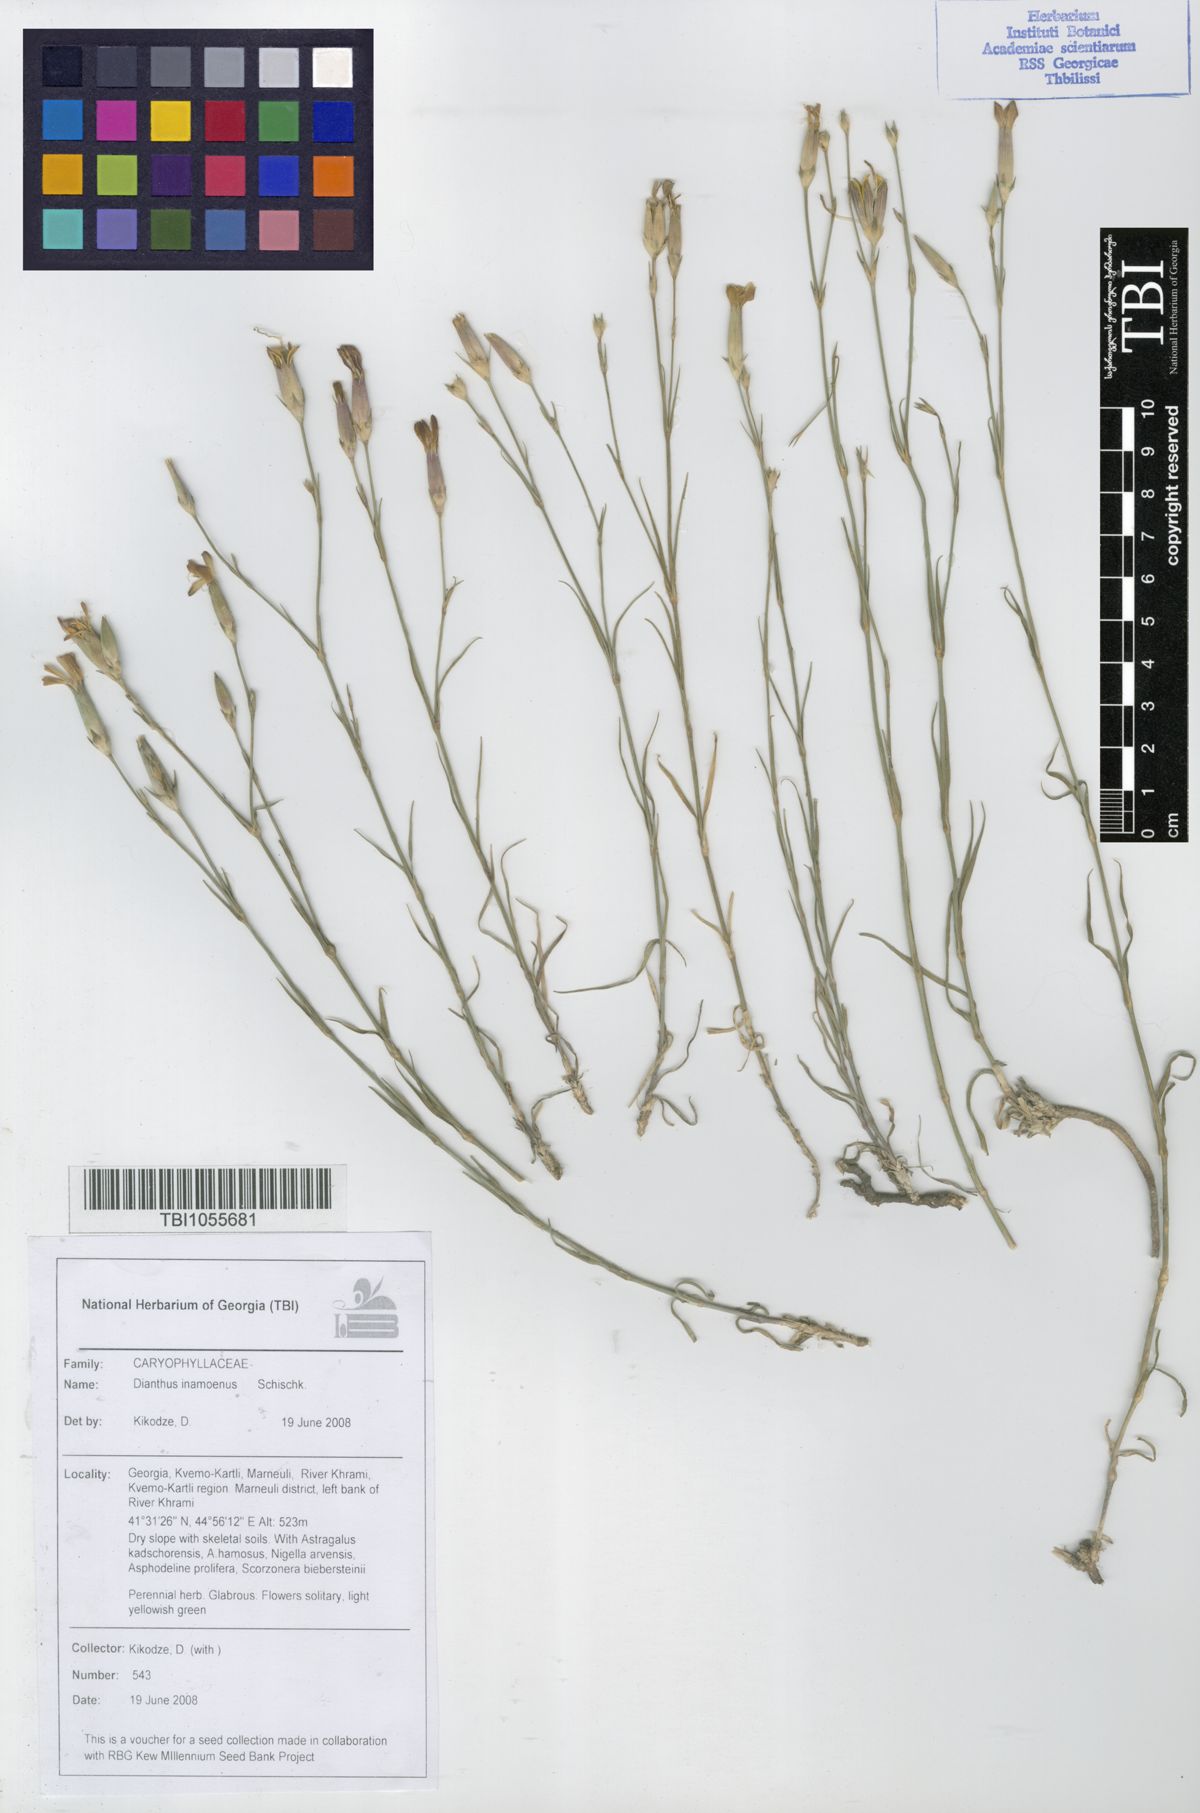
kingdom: Plantae
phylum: Tracheophyta
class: Magnoliopsida
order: Caryophyllales
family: Caryophyllaceae
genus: Dianthus
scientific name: Dianthus inamoenus
